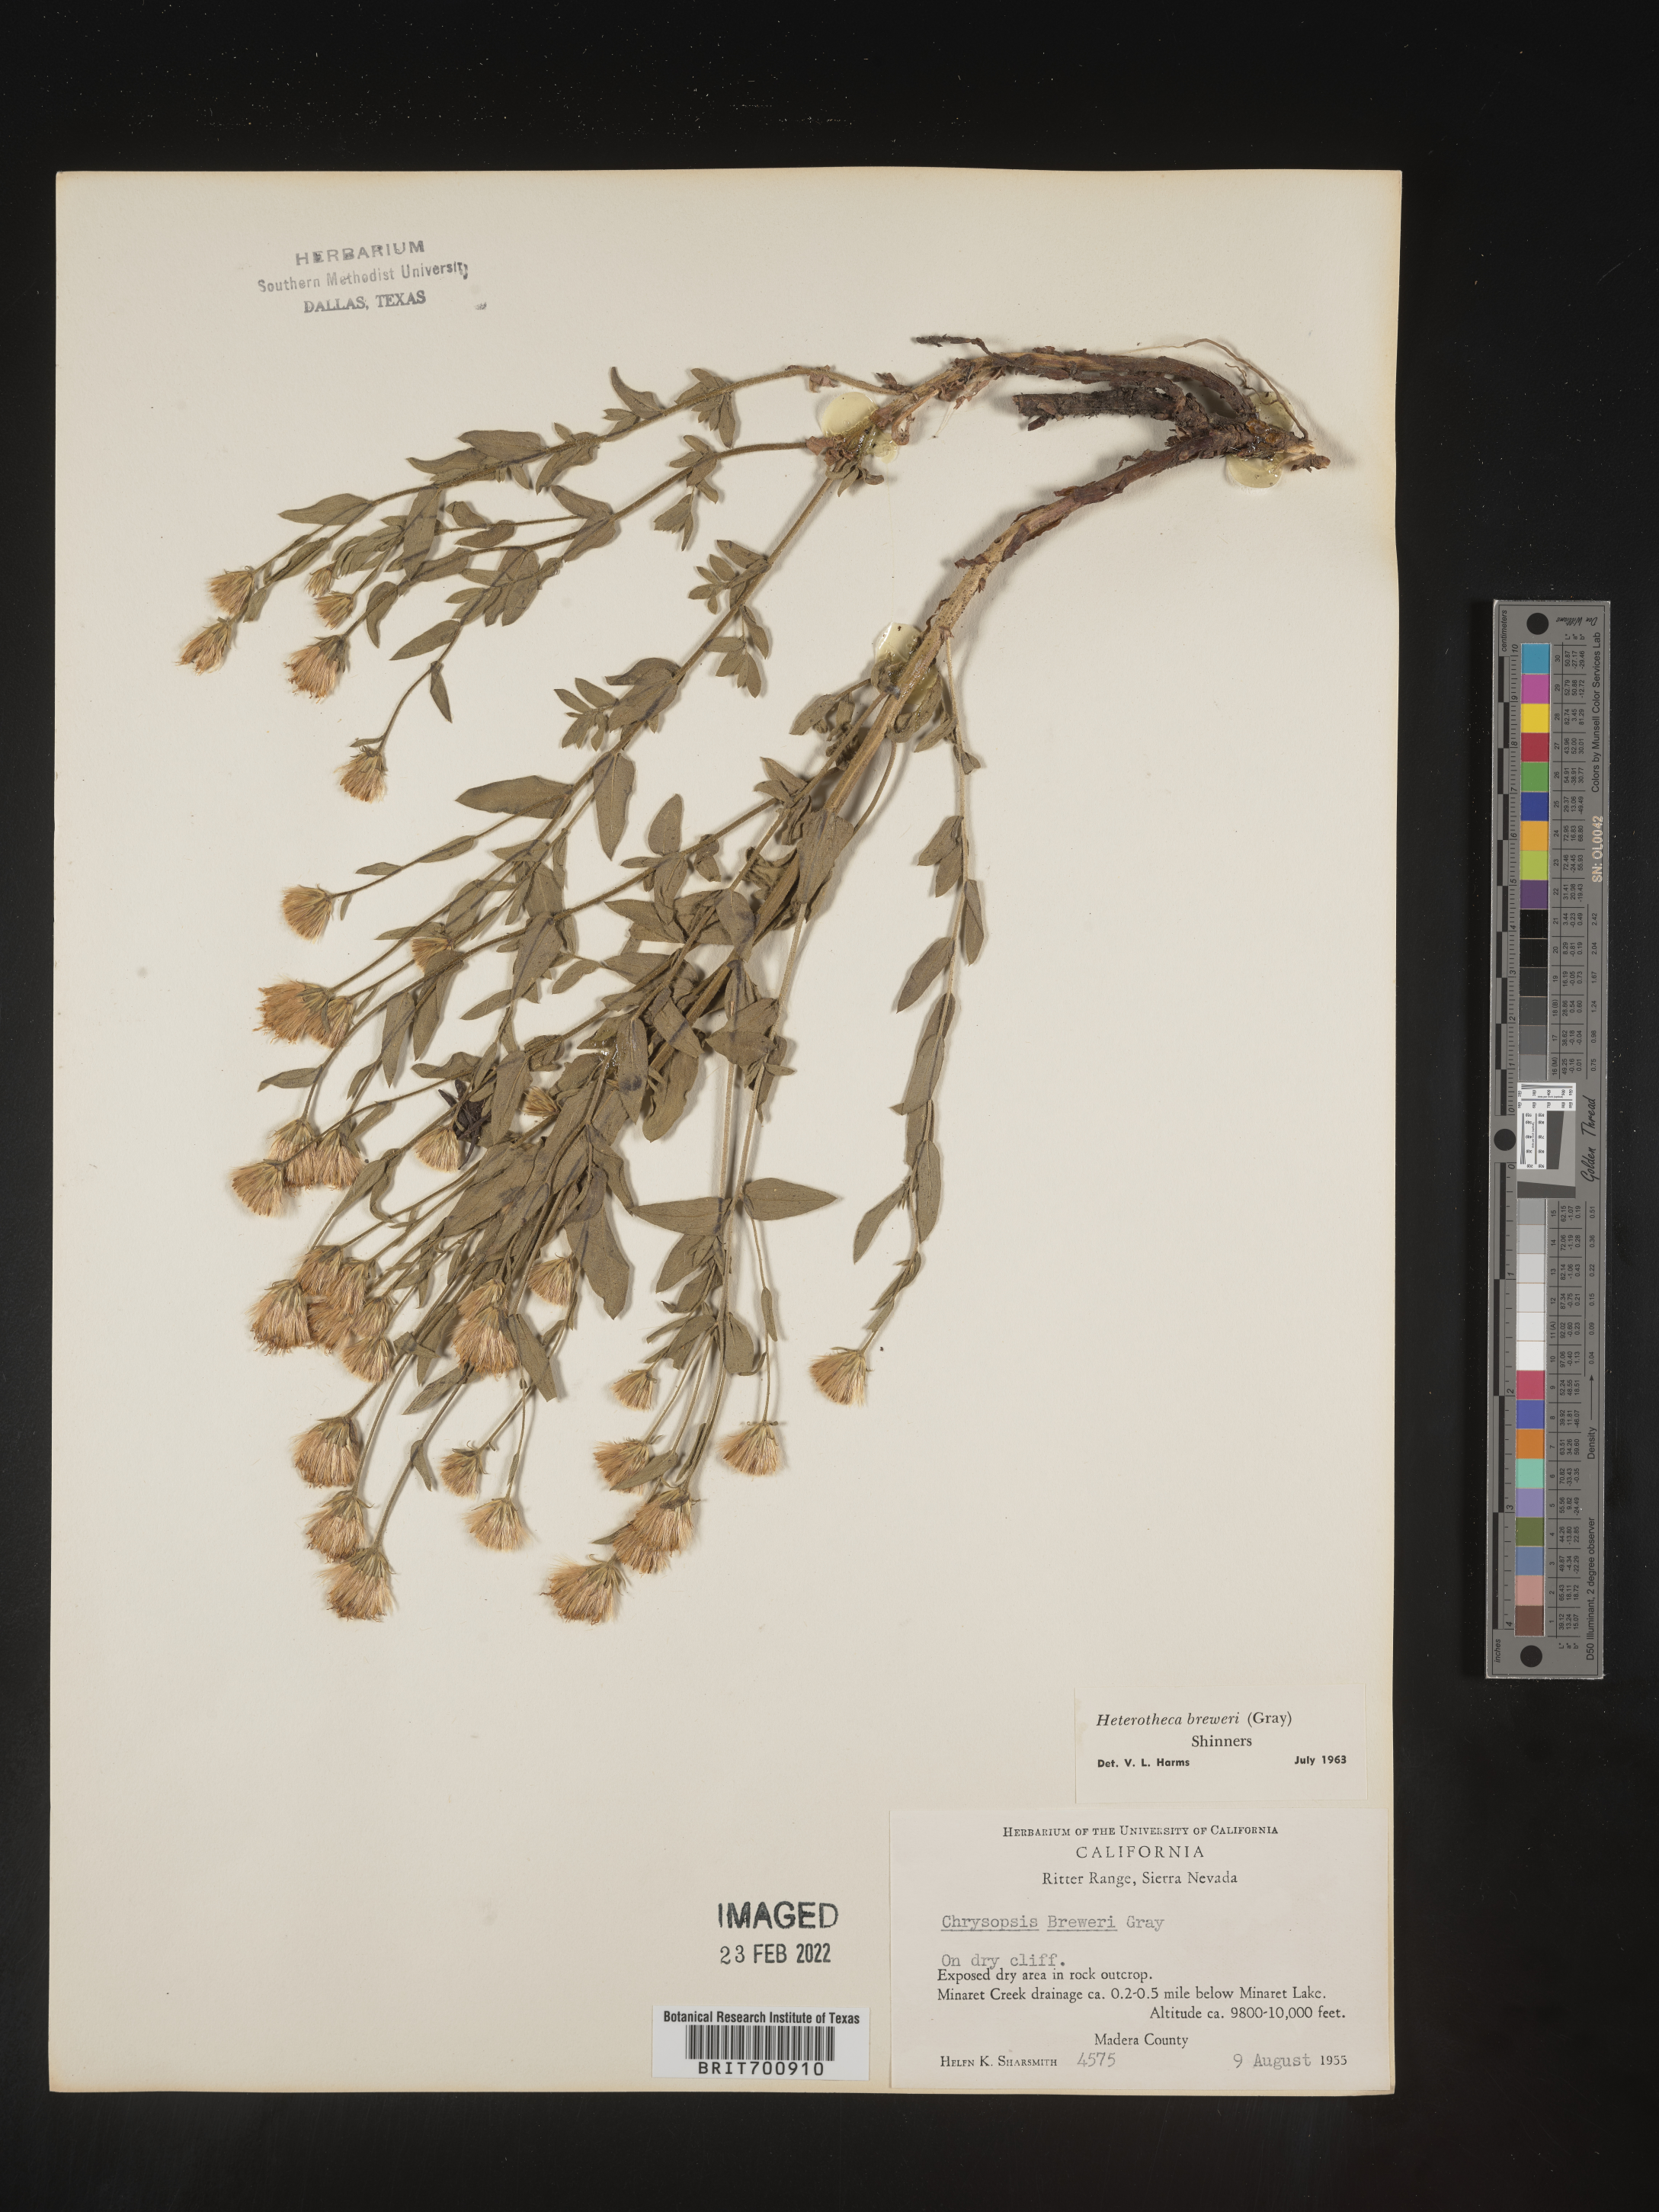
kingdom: Plantae
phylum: Tracheophyta
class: Magnoliopsida
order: Asterales
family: Asteraceae
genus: Eucephalus
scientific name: Eucephalus breweri
